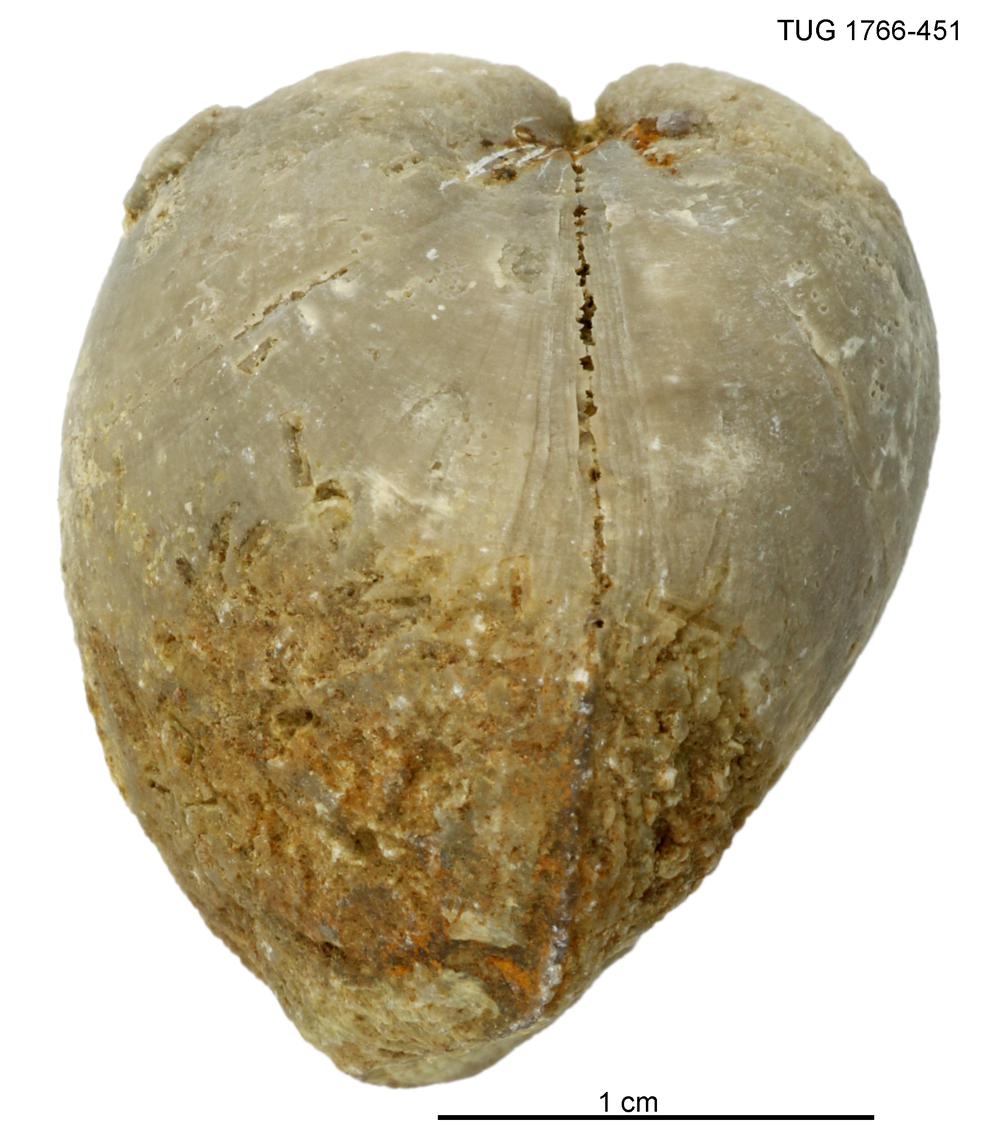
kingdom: Animalia
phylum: Brachiopoda
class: Rhynchonellata
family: Porambonitidae
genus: Porambonites
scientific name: Porambonites
